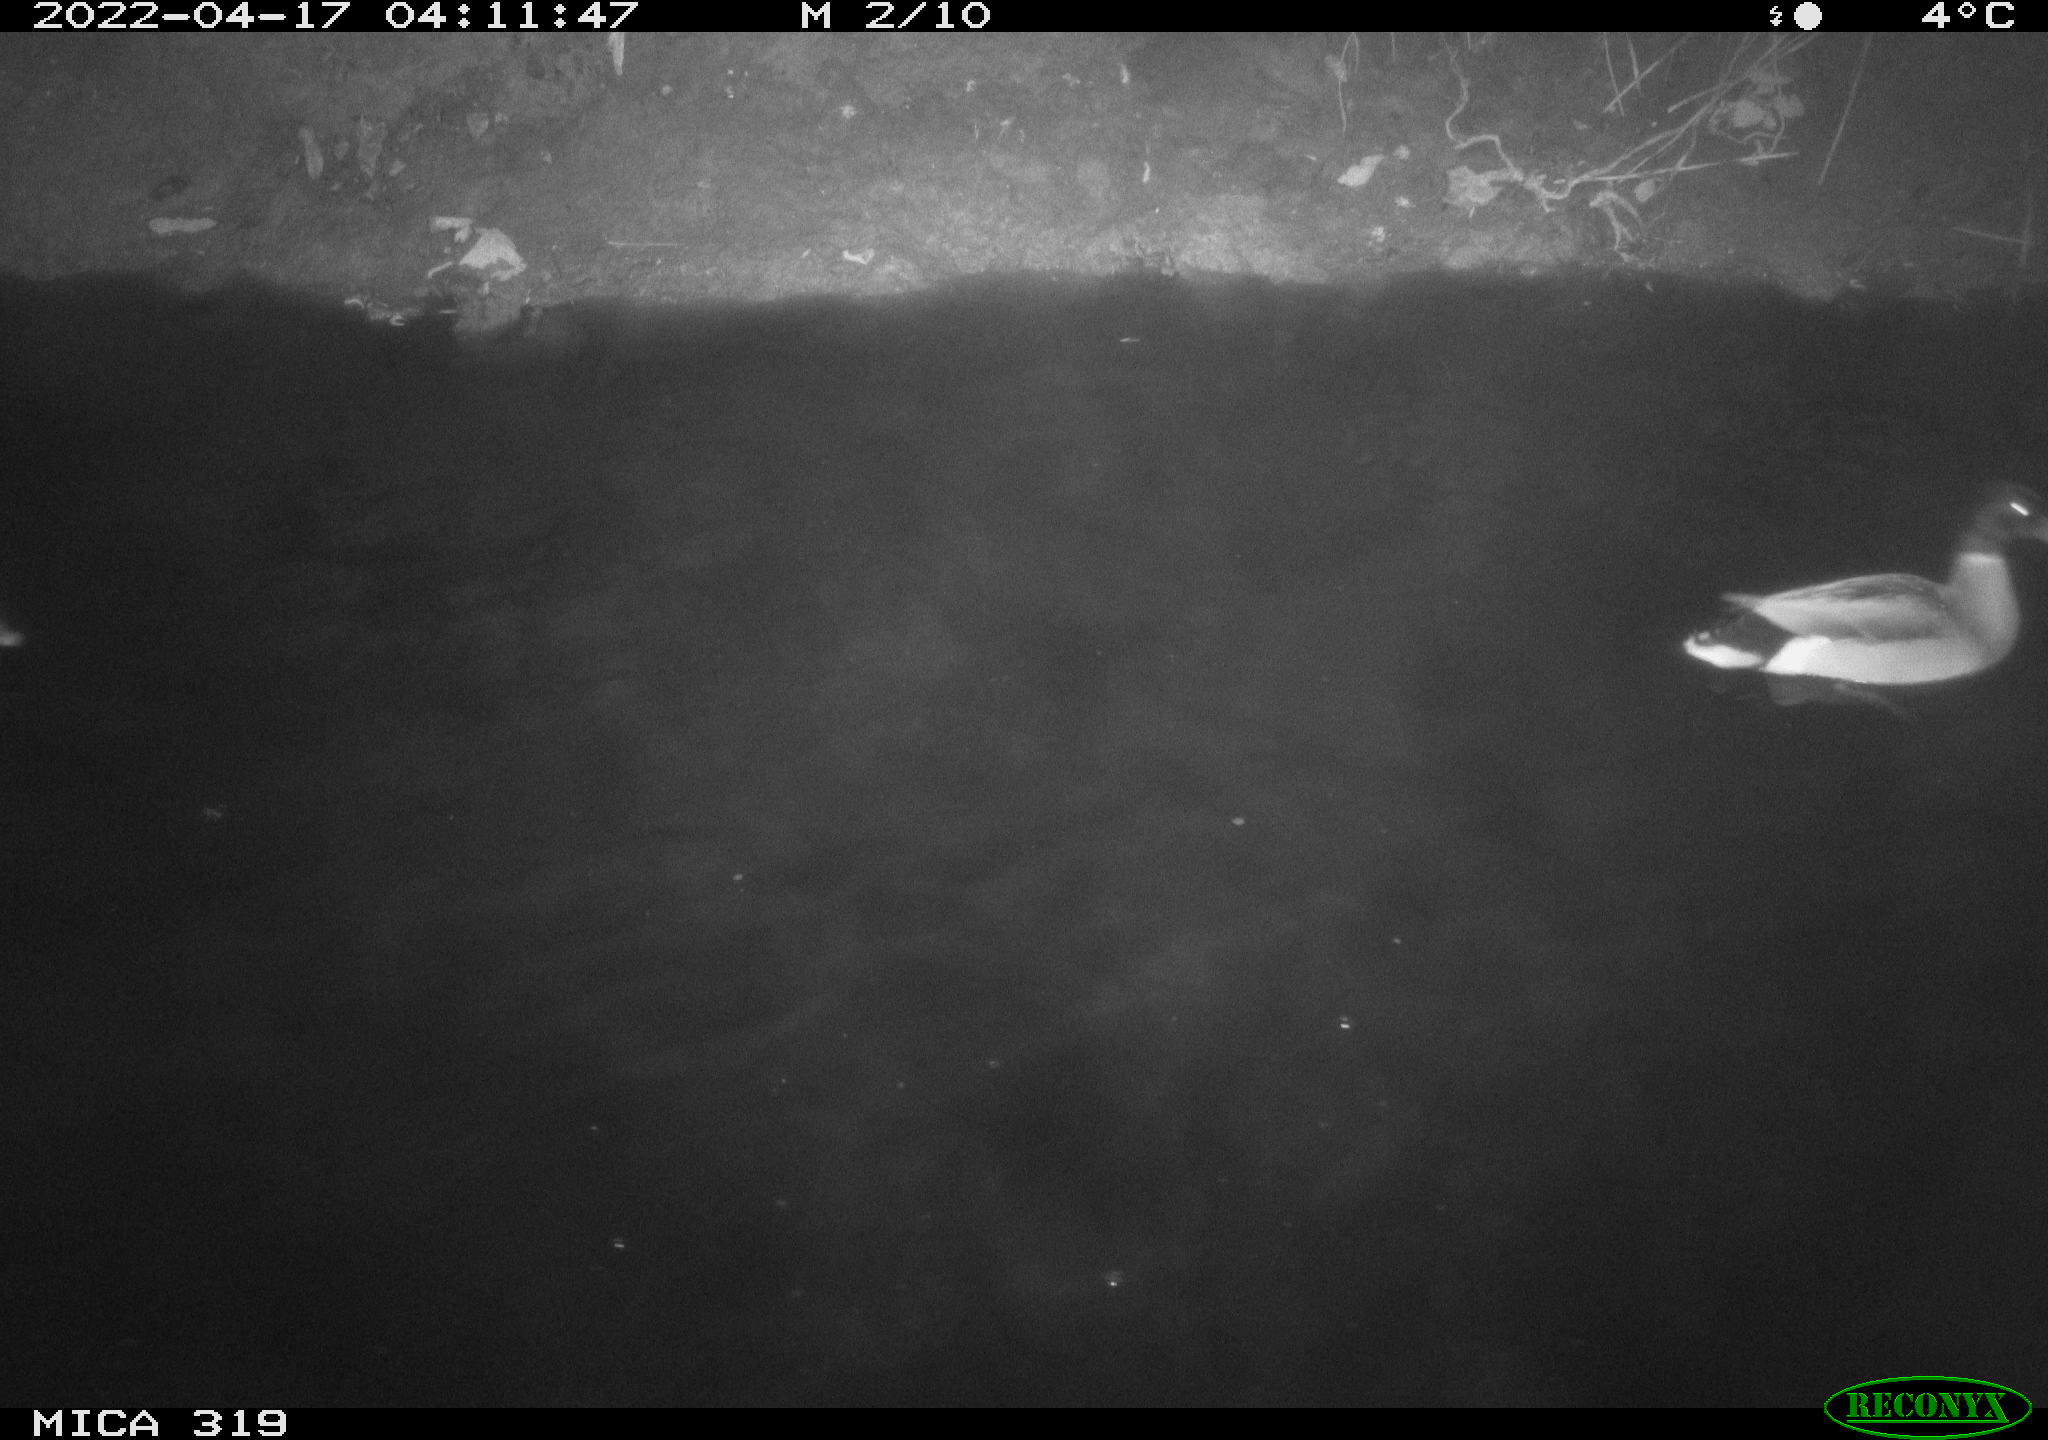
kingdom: Animalia
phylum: Chordata
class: Aves
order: Anseriformes
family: Anatidae
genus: Anas
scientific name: Anas platyrhynchos
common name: Mallard
